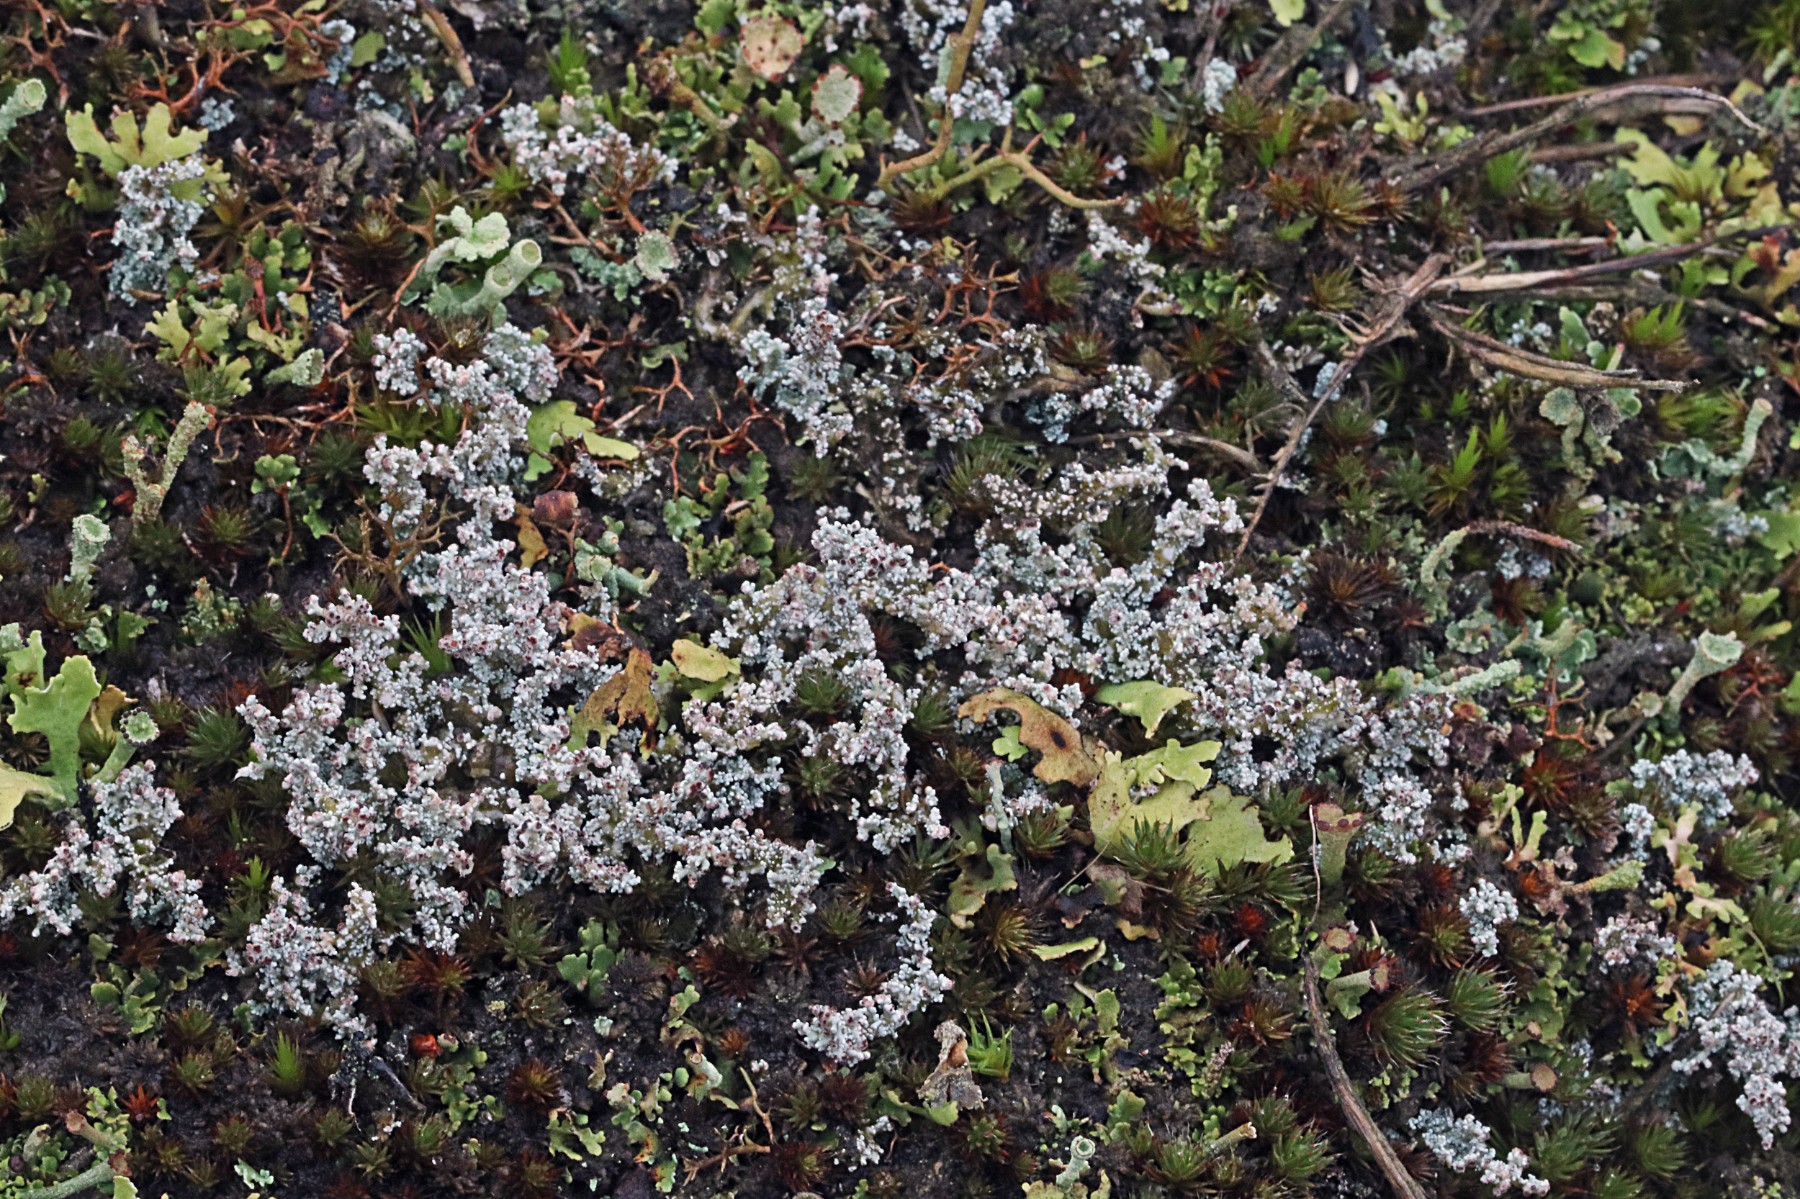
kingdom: Fungi
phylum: Ascomycota
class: Lecanoromycetes
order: Lecanorales
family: Stereocaulaceae
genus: Stereocaulon
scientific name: Stereocaulon saxatile
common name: klit-korallav
